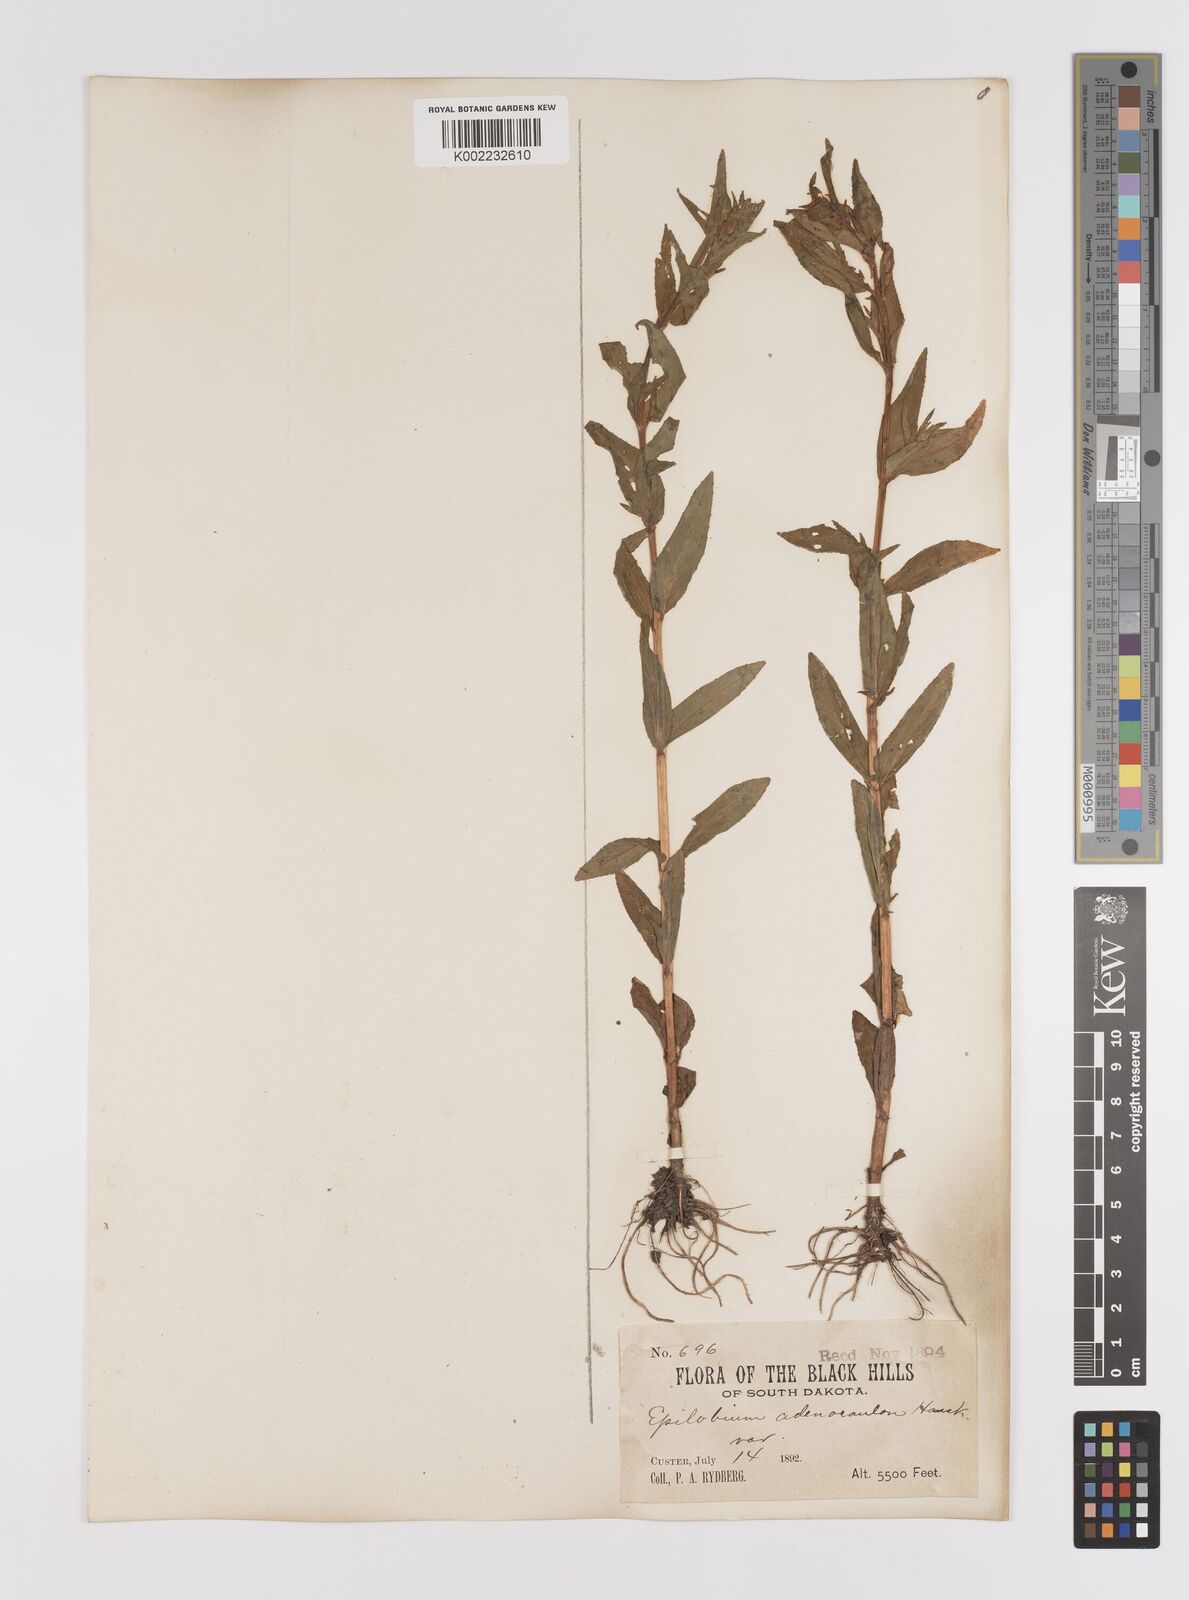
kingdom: Plantae
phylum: Tracheophyta
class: Magnoliopsida
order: Myrtales
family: Onagraceae
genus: Epilobium
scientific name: Epilobium ciliatum
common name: American willowherb
